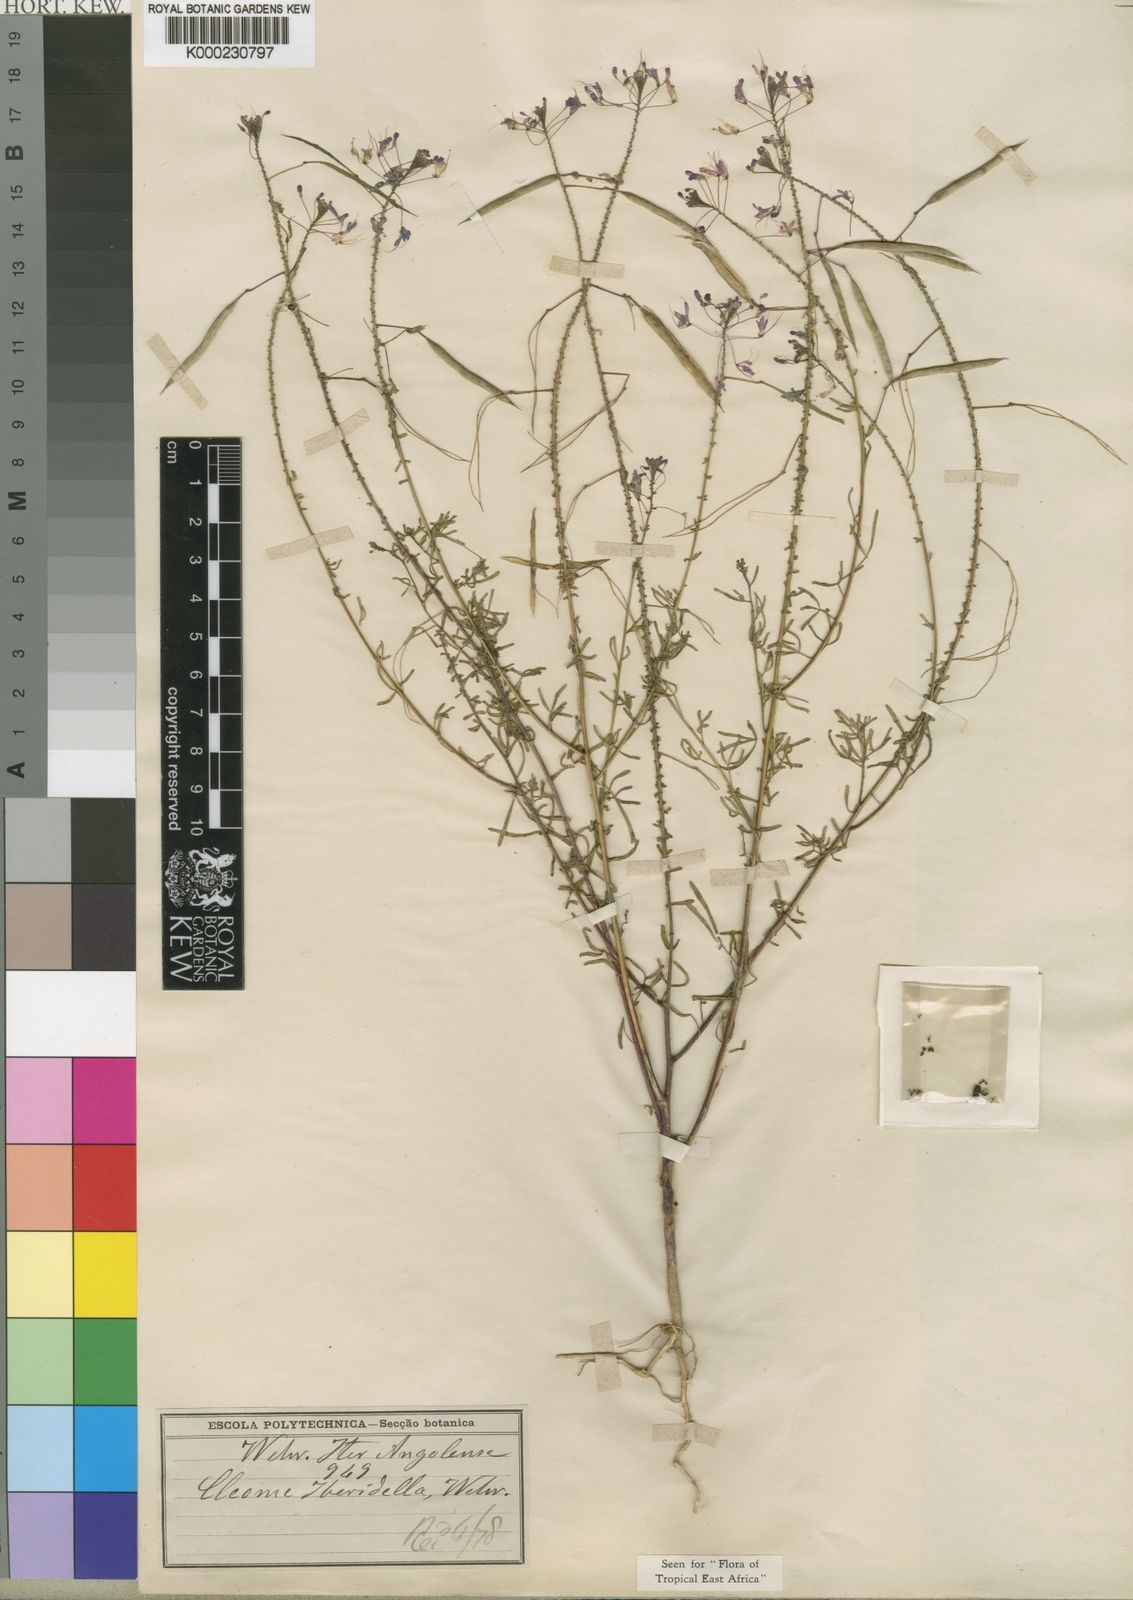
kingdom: Plantae
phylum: Tracheophyta
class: Magnoliopsida
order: Brassicales
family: Cleomaceae
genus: Sieruela
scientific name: Sieruela iberidella
